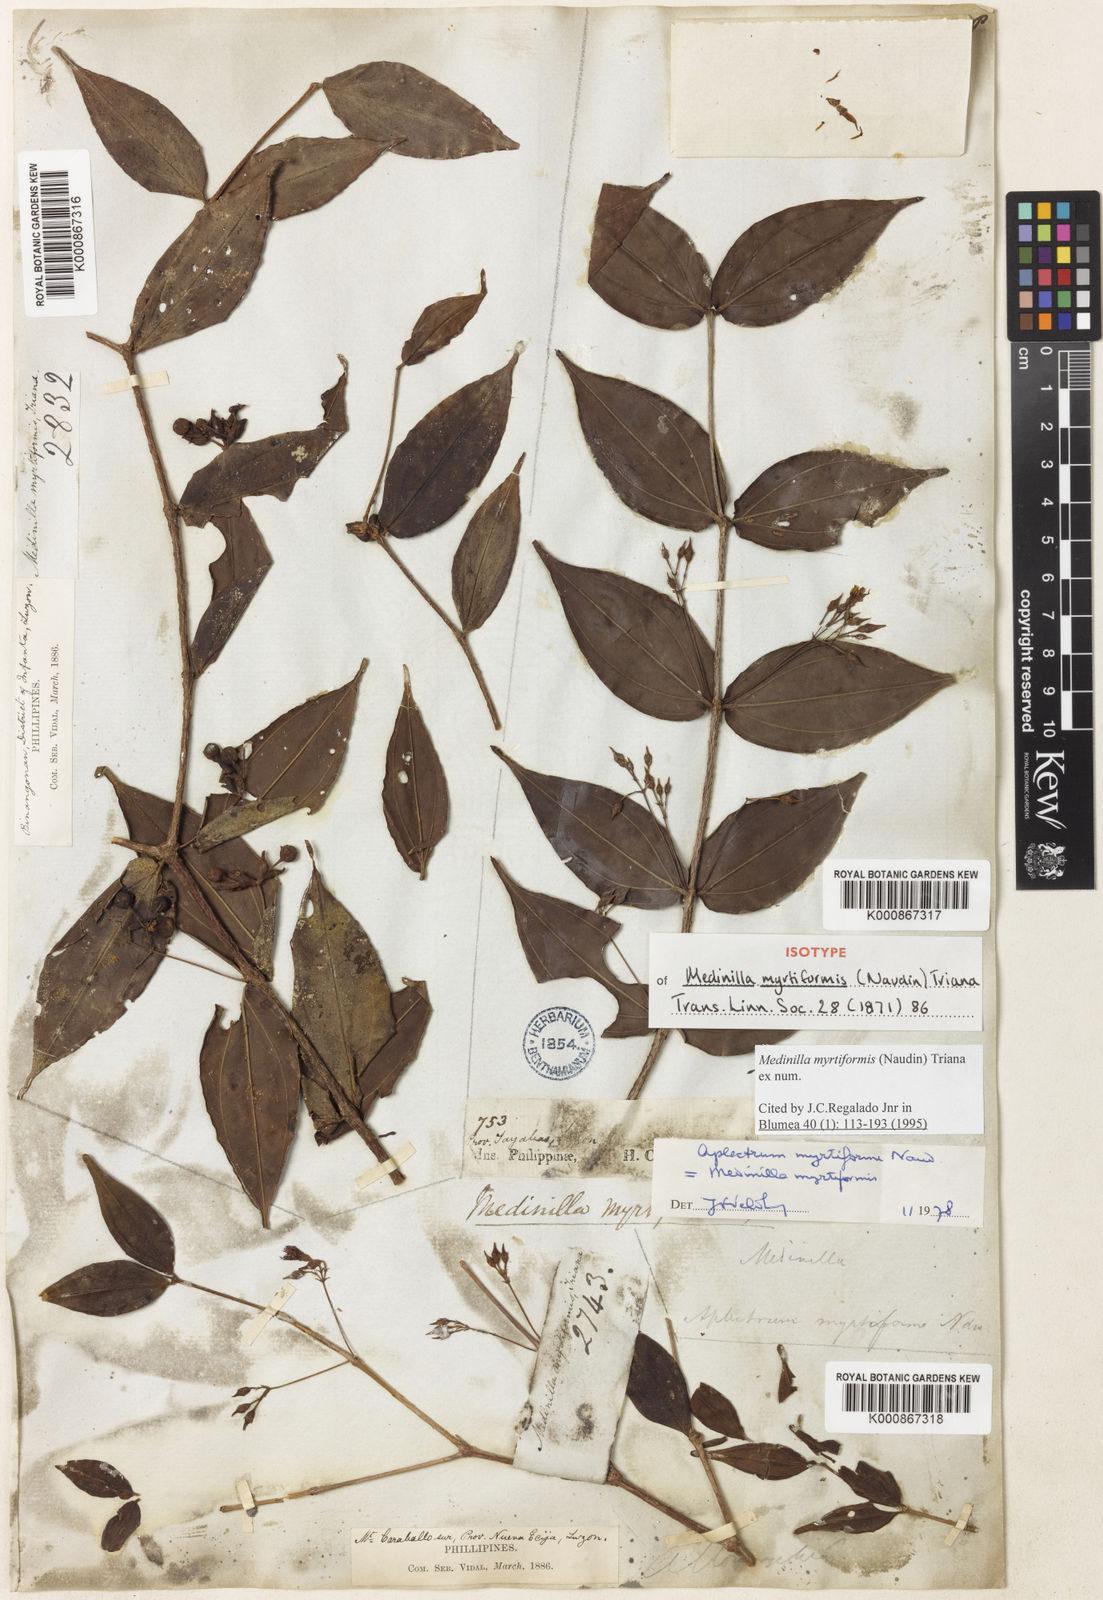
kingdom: Plantae
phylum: Tracheophyta
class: Magnoliopsida
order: Myrtales
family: Melastomataceae
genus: Medinilla
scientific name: Medinilla myrtiformis
